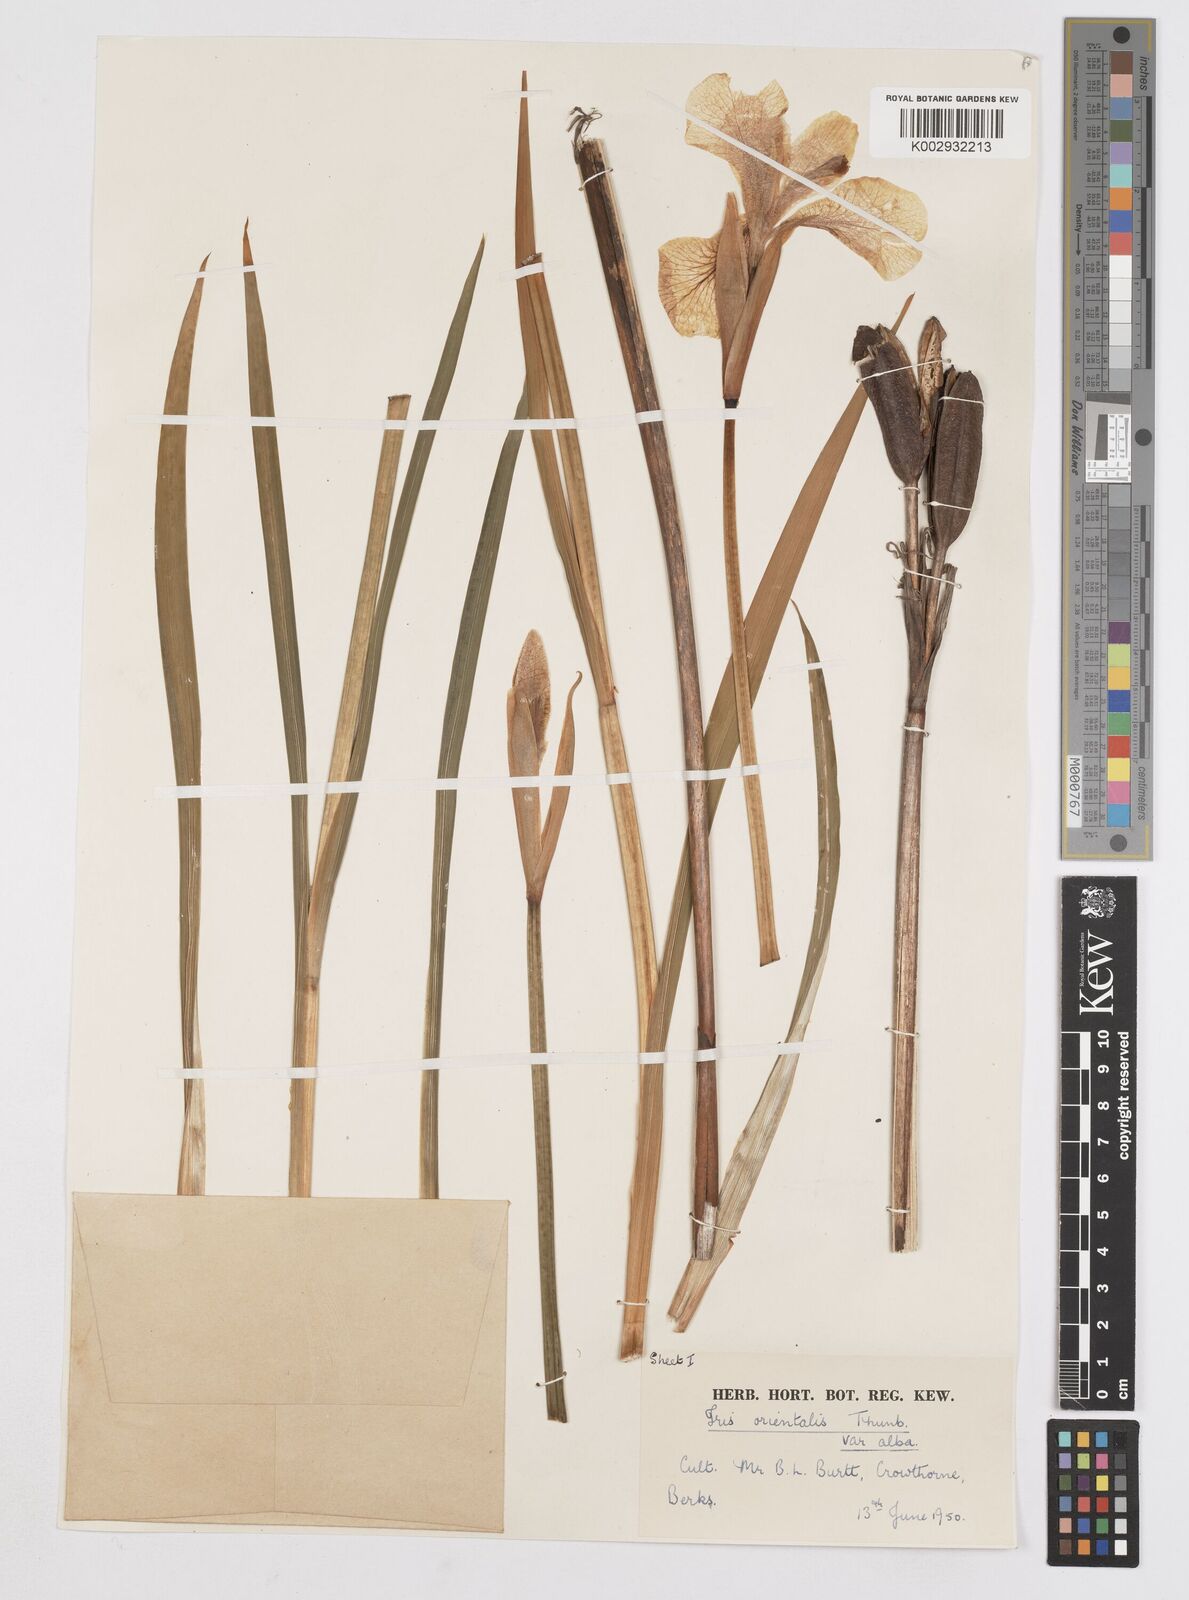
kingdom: Plantae
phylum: Tracheophyta
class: Liliopsida
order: Asparagales
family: Iridaceae
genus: Iris
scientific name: Iris sanguinea
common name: Blood iris
